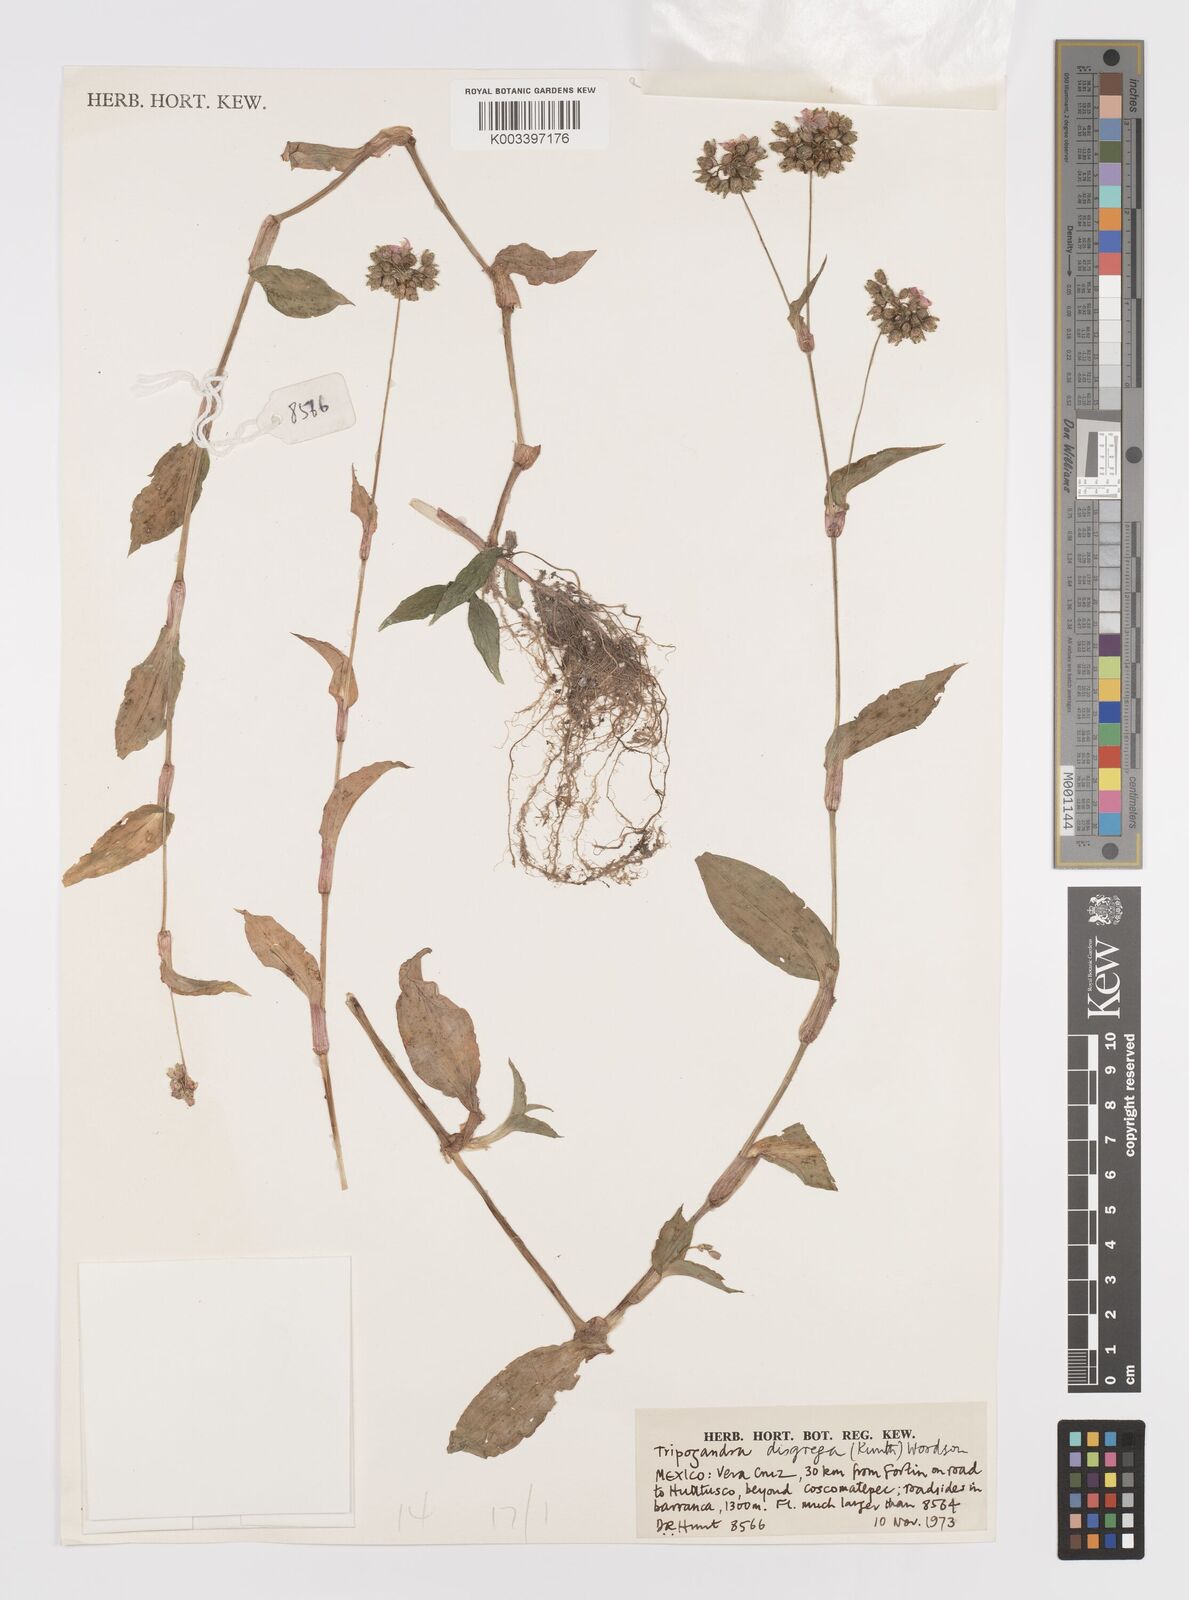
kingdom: Plantae
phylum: Tracheophyta
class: Liliopsida
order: Commelinales
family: Commelinaceae
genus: Callisia
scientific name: Callisia disgrega
